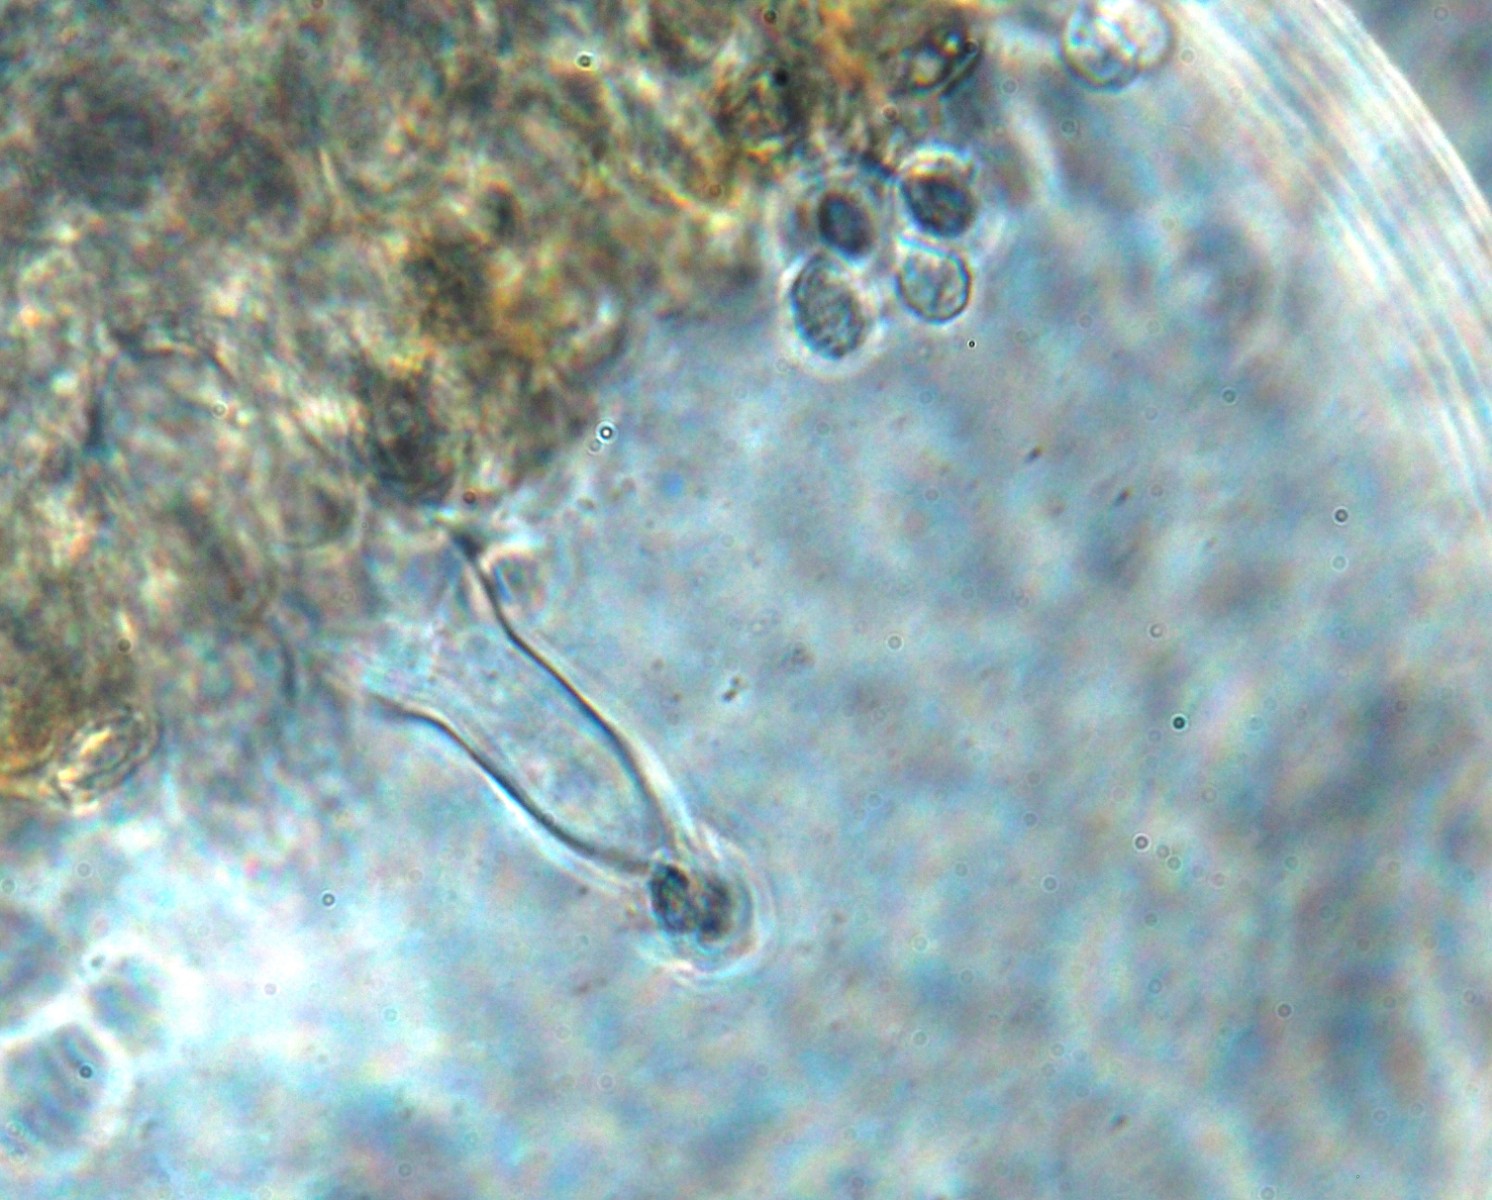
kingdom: Fungi
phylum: Basidiomycota
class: Agaricomycetes
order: Agaricales
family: Tricholomataceae
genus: Melanoleuca
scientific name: Melanoleuca polioleuca
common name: hvidbladet munkehat
